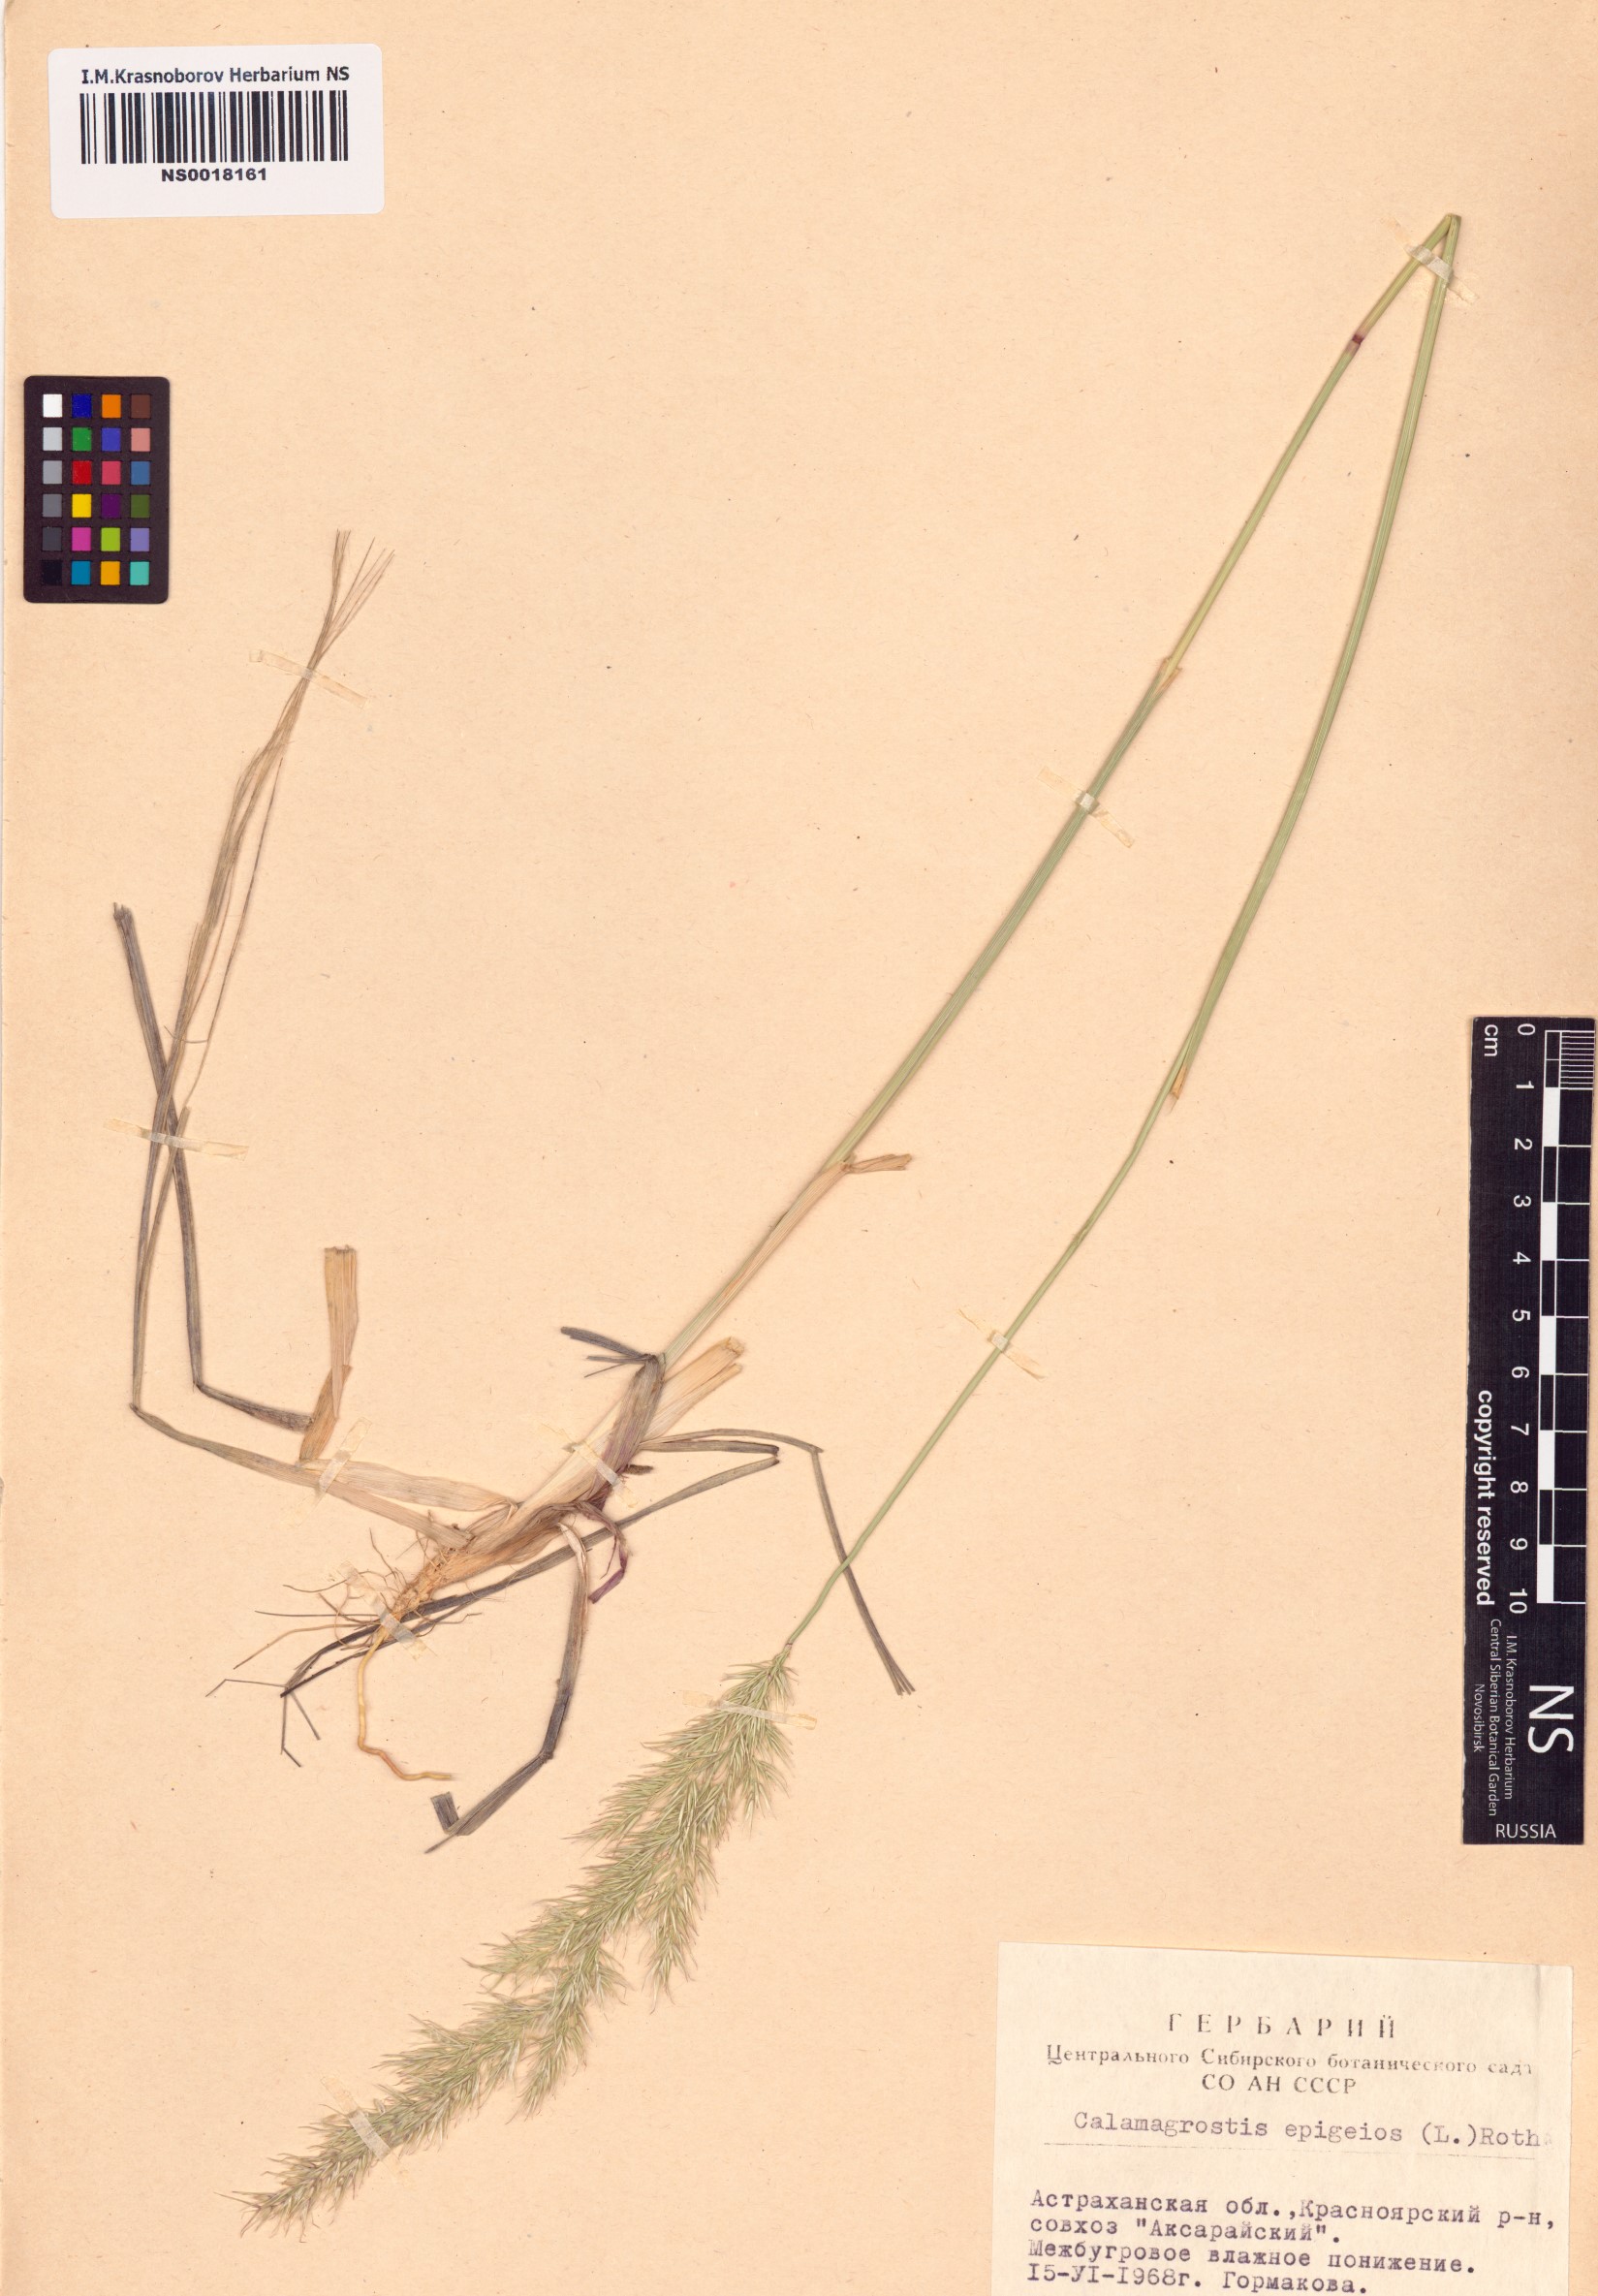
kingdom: Plantae
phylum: Tracheophyta
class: Liliopsida
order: Poales
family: Poaceae
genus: Calamagrostis
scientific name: Calamagrostis epigejos
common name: Wood small-reed
